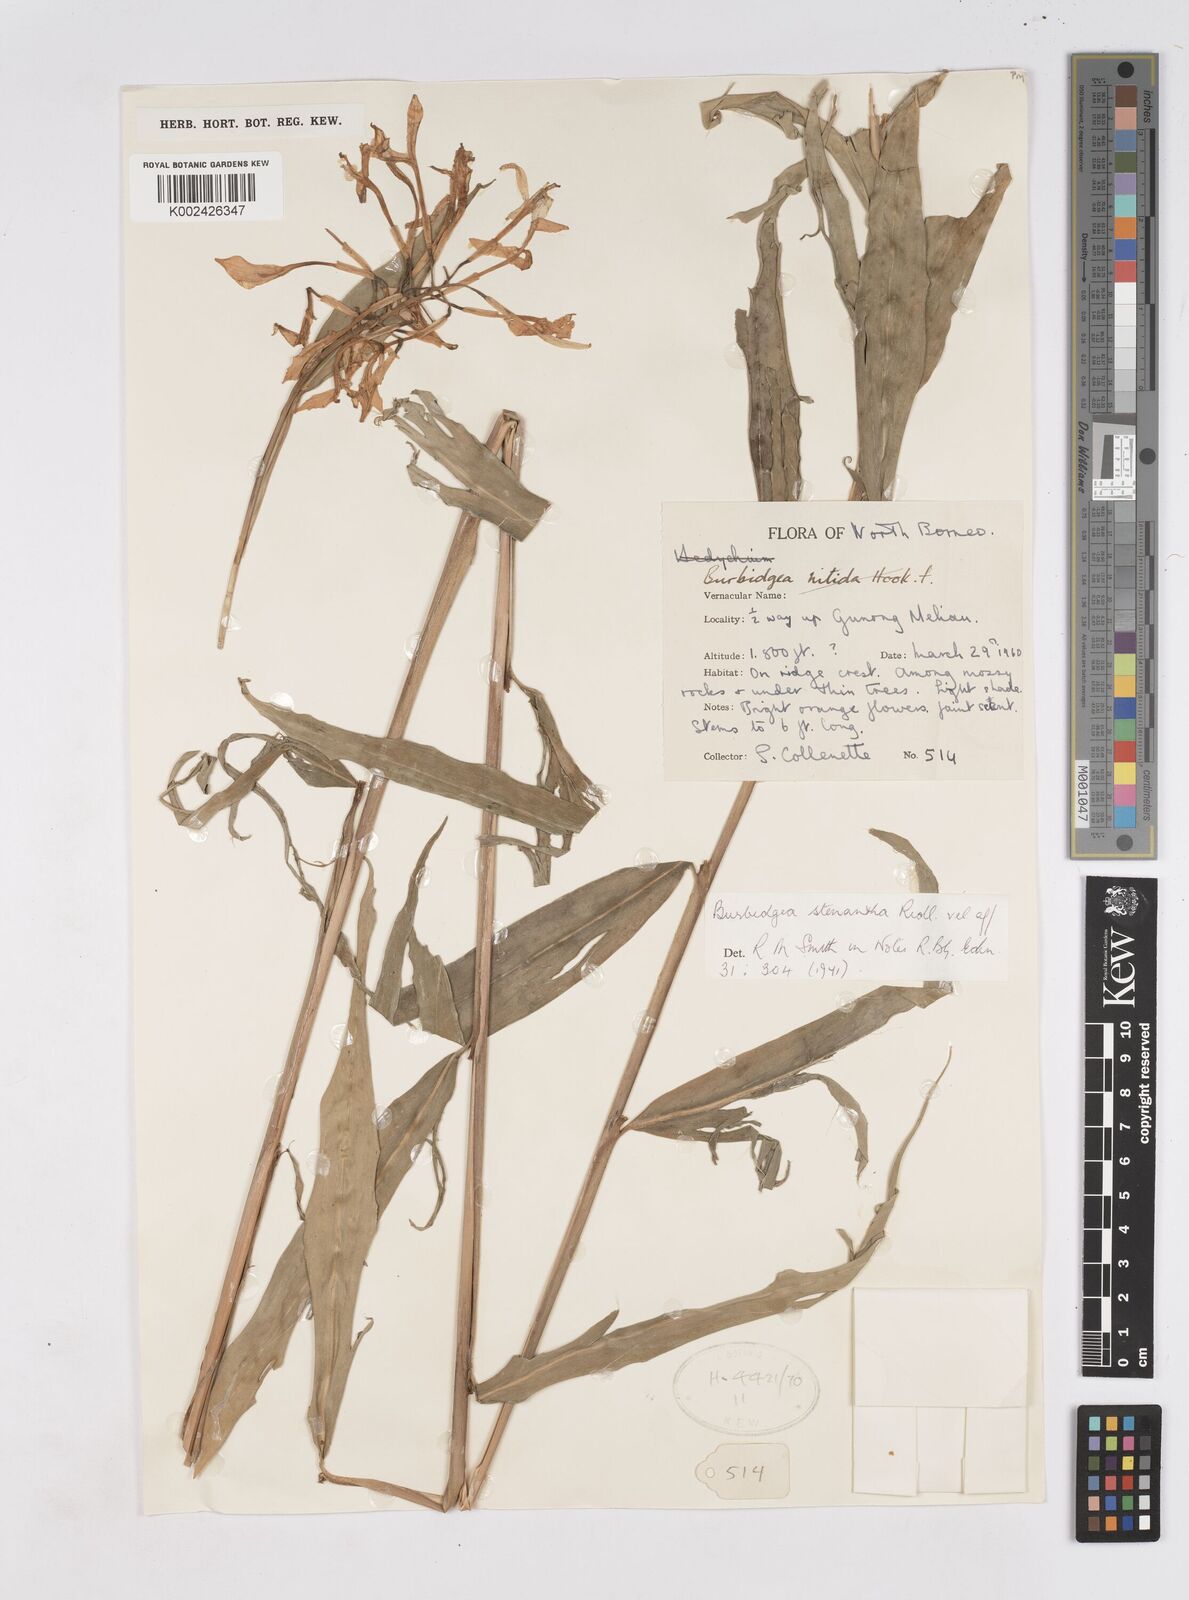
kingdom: Plantae
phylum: Tracheophyta
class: Liliopsida
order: Zingiberales
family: Zingiberaceae
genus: Burbidgea
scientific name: Burbidgea stenantha
